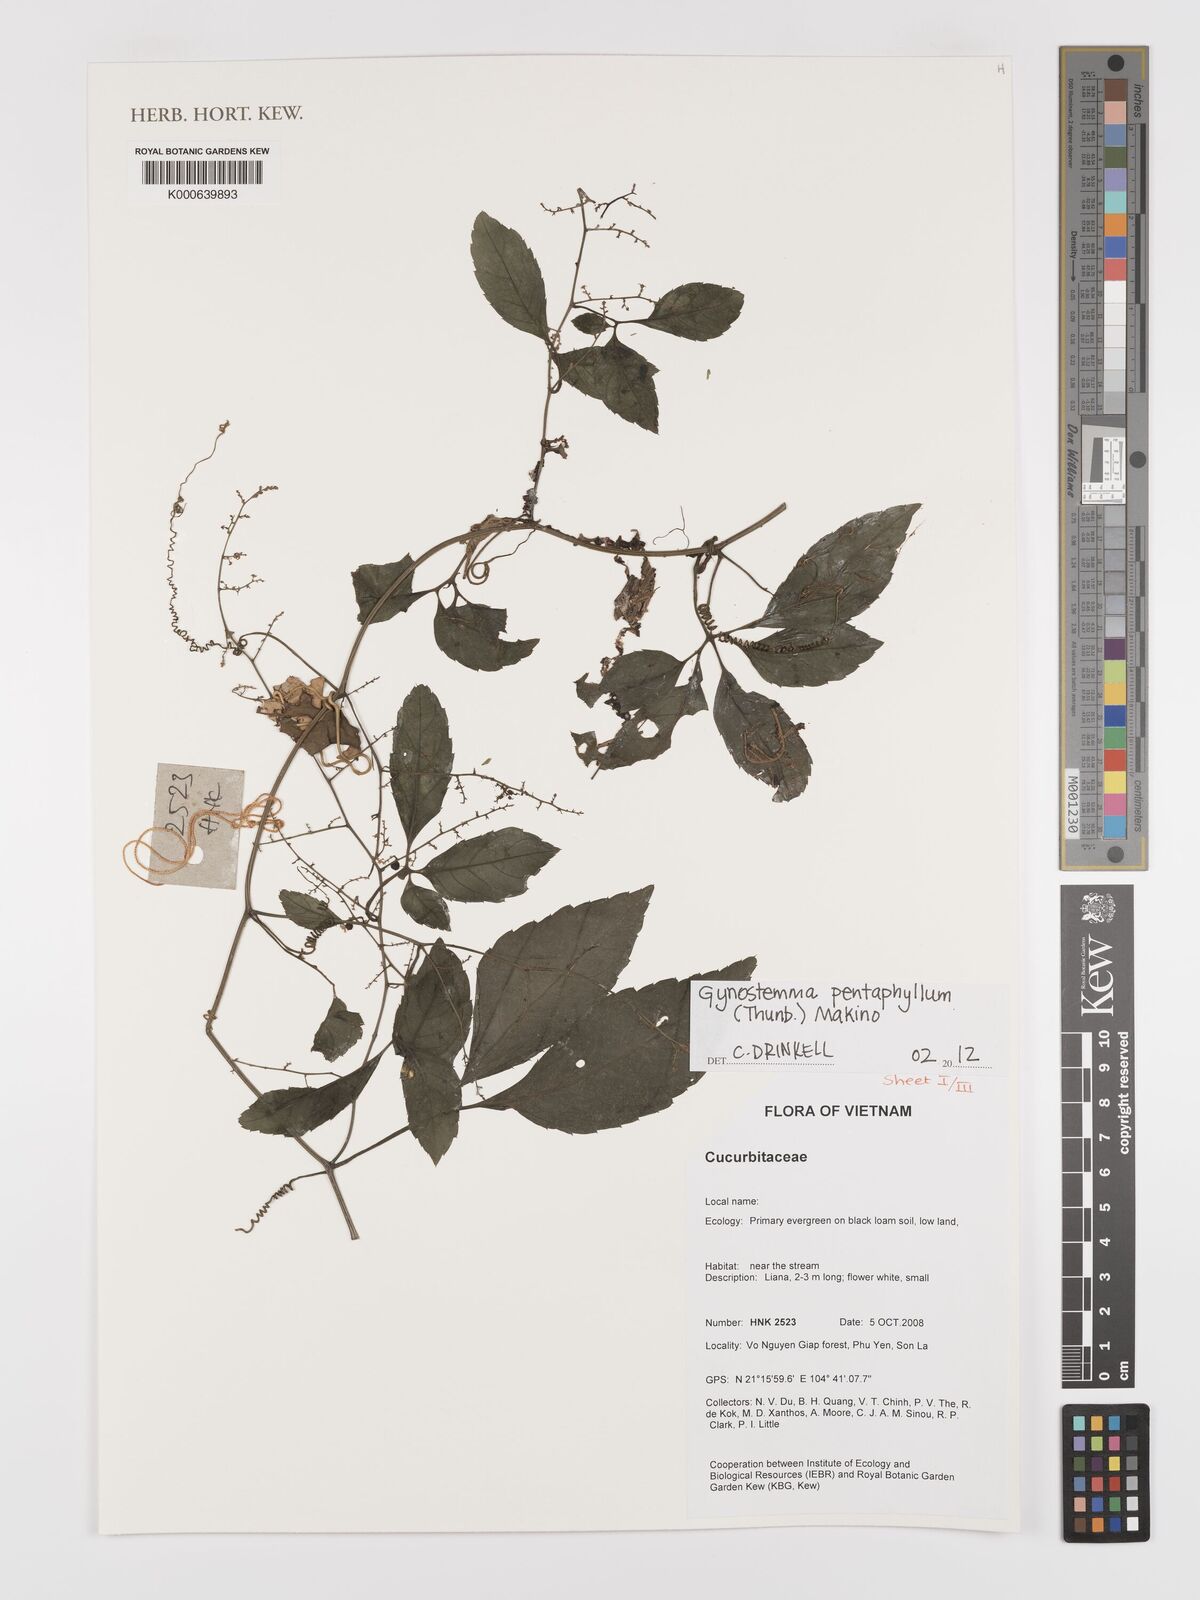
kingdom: Plantae
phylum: Tracheophyta
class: Magnoliopsida
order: Cucurbitales
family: Cucurbitaceae
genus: Gynostemma
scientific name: Gynostemma pentaphyllum
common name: Gynostemma
